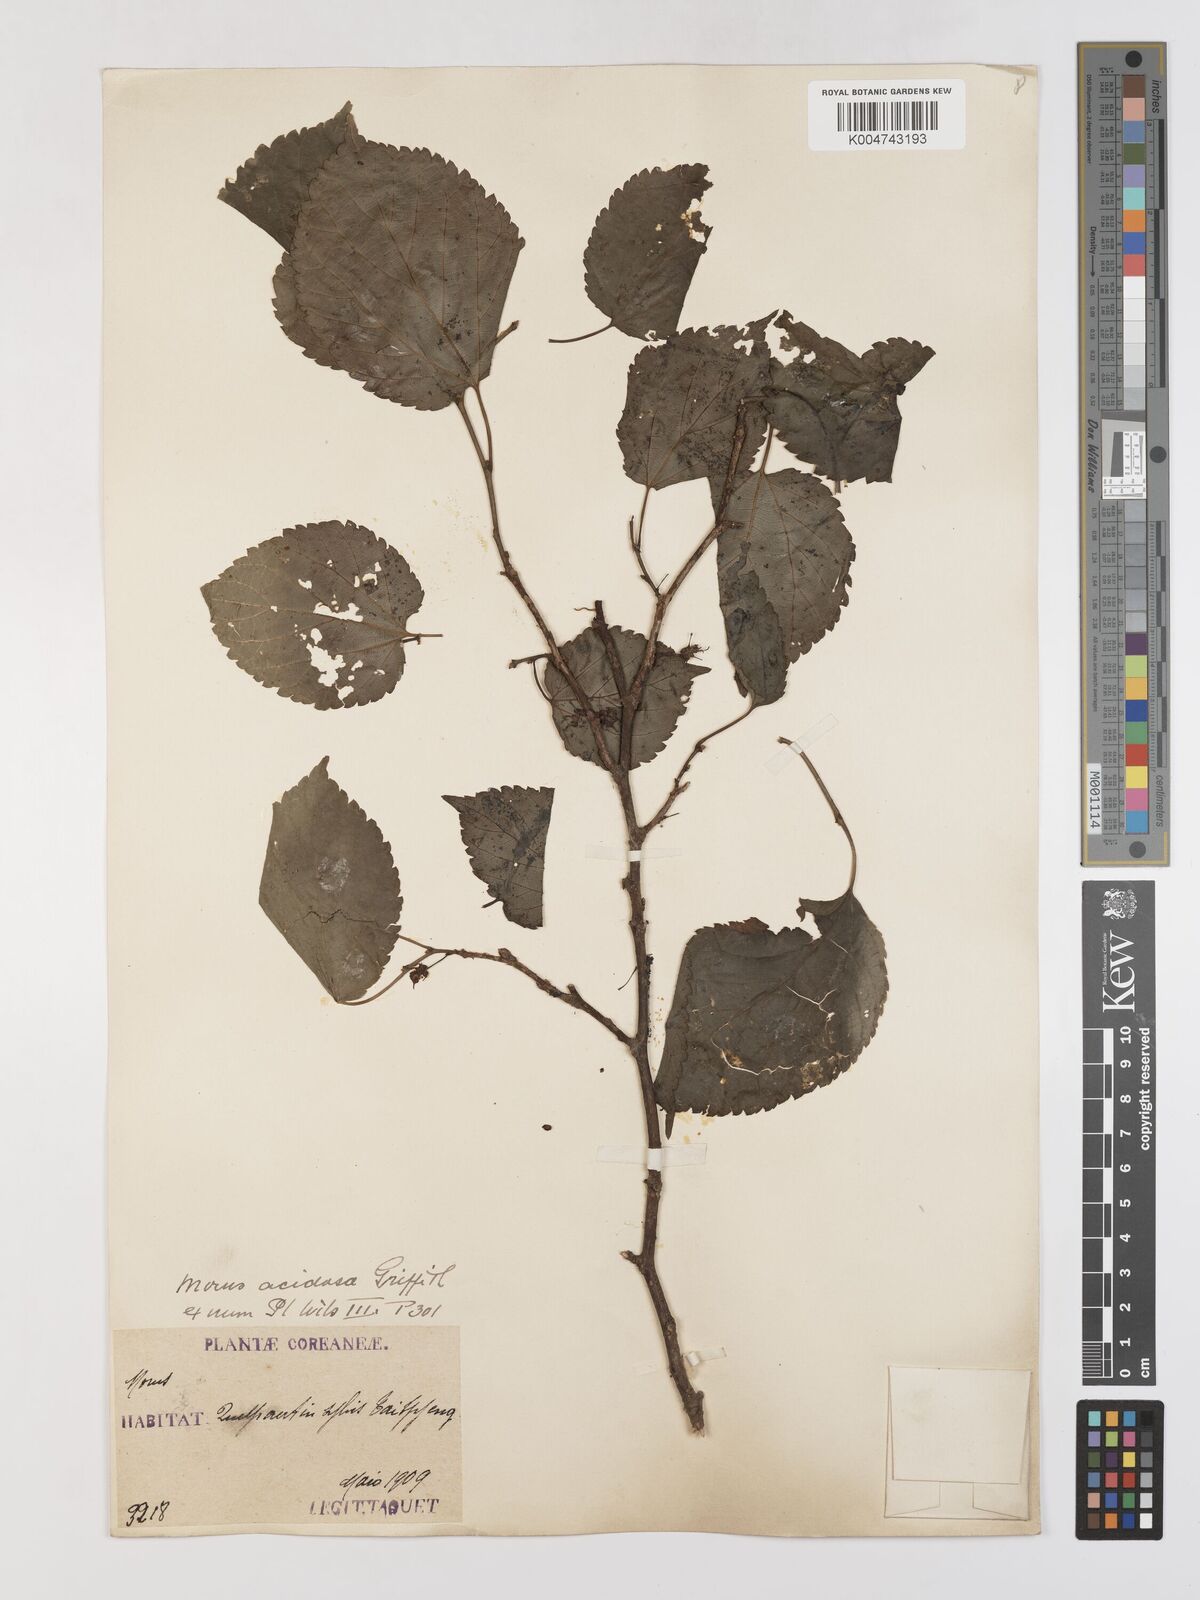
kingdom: Plantae
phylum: Tracheophyta
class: Magnoliopsida
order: Rosales
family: Moraceae
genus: Morus
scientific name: Morus indica
